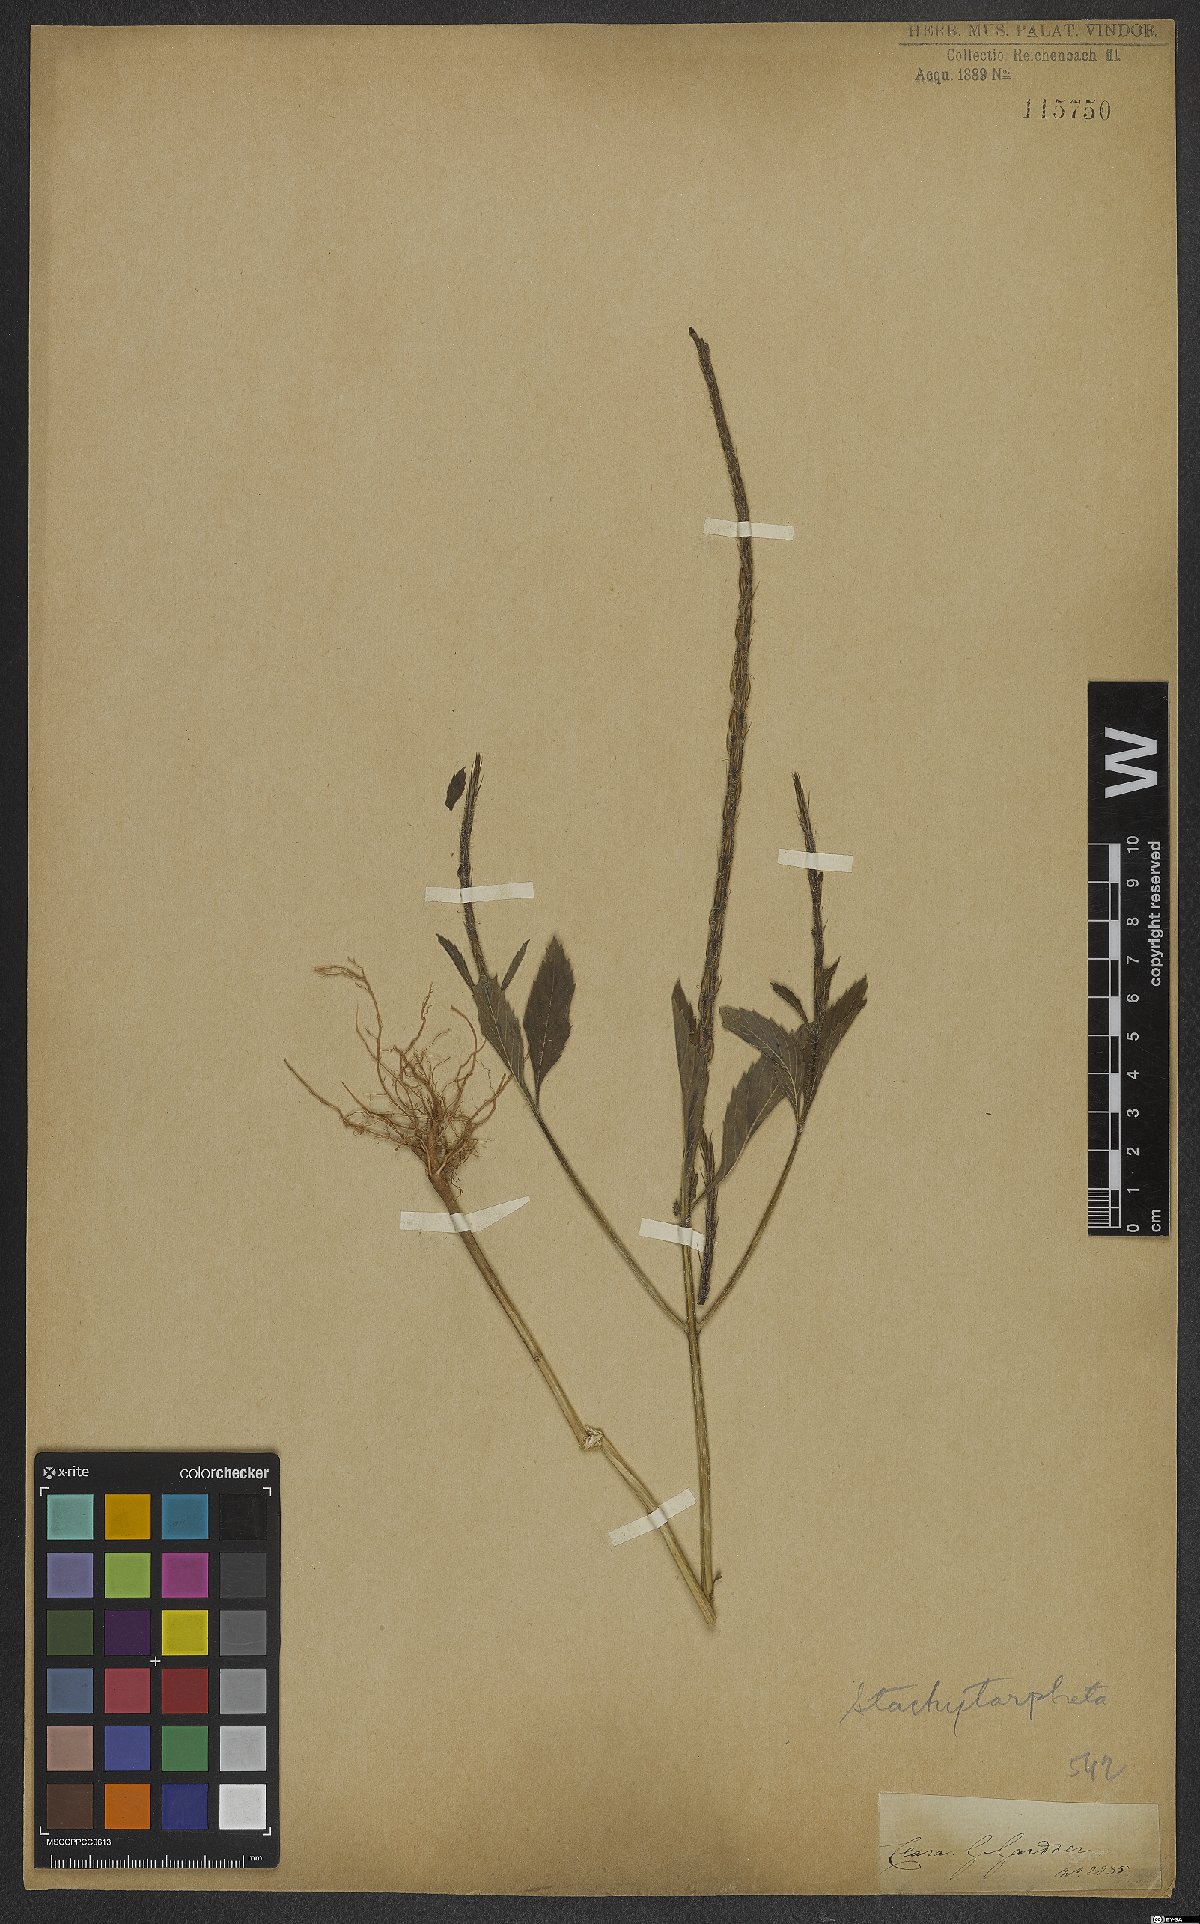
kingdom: Plantae
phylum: Tracheophyta
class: Magnoliopsida
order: Lamiales
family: Verbenaceae
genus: Stachytarpheta
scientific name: Stachytarpheta
